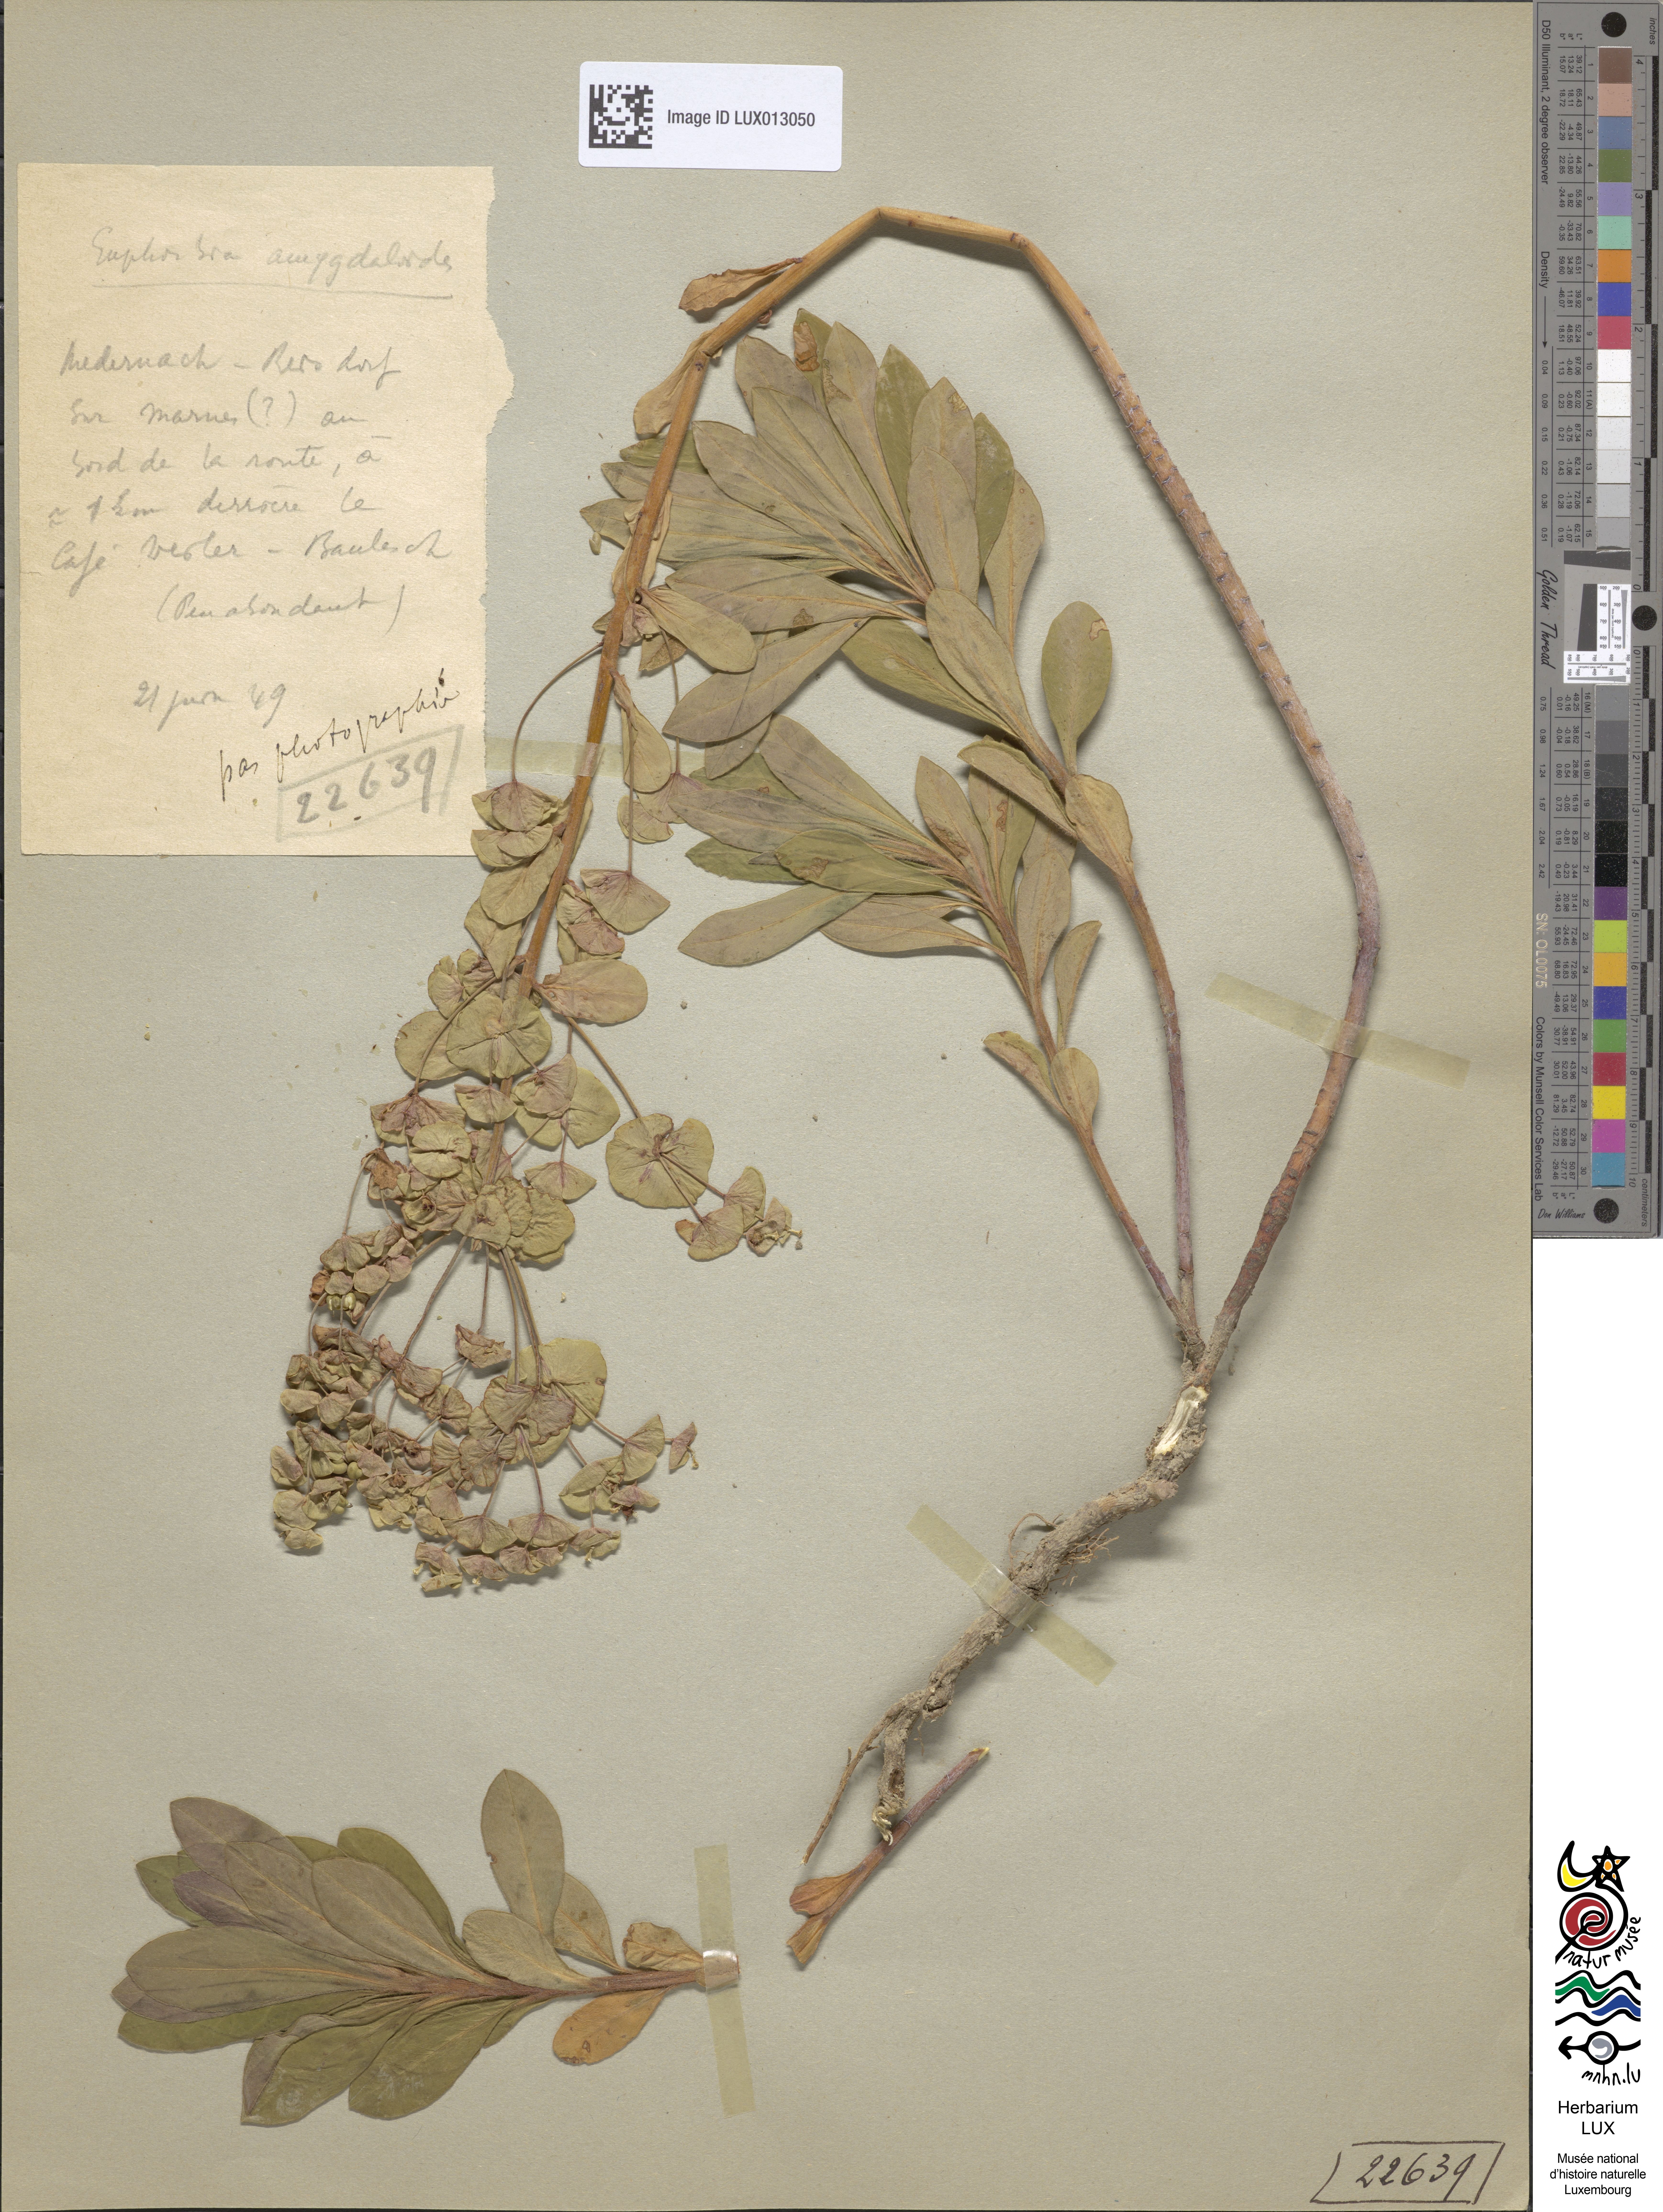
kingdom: Plantae
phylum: Tracheophyta
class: Magnoliopsida
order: Malpighiales
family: Euphorbiaceae
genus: Euphorbia
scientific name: Euphorbia amygdaloides
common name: Wood spurge
